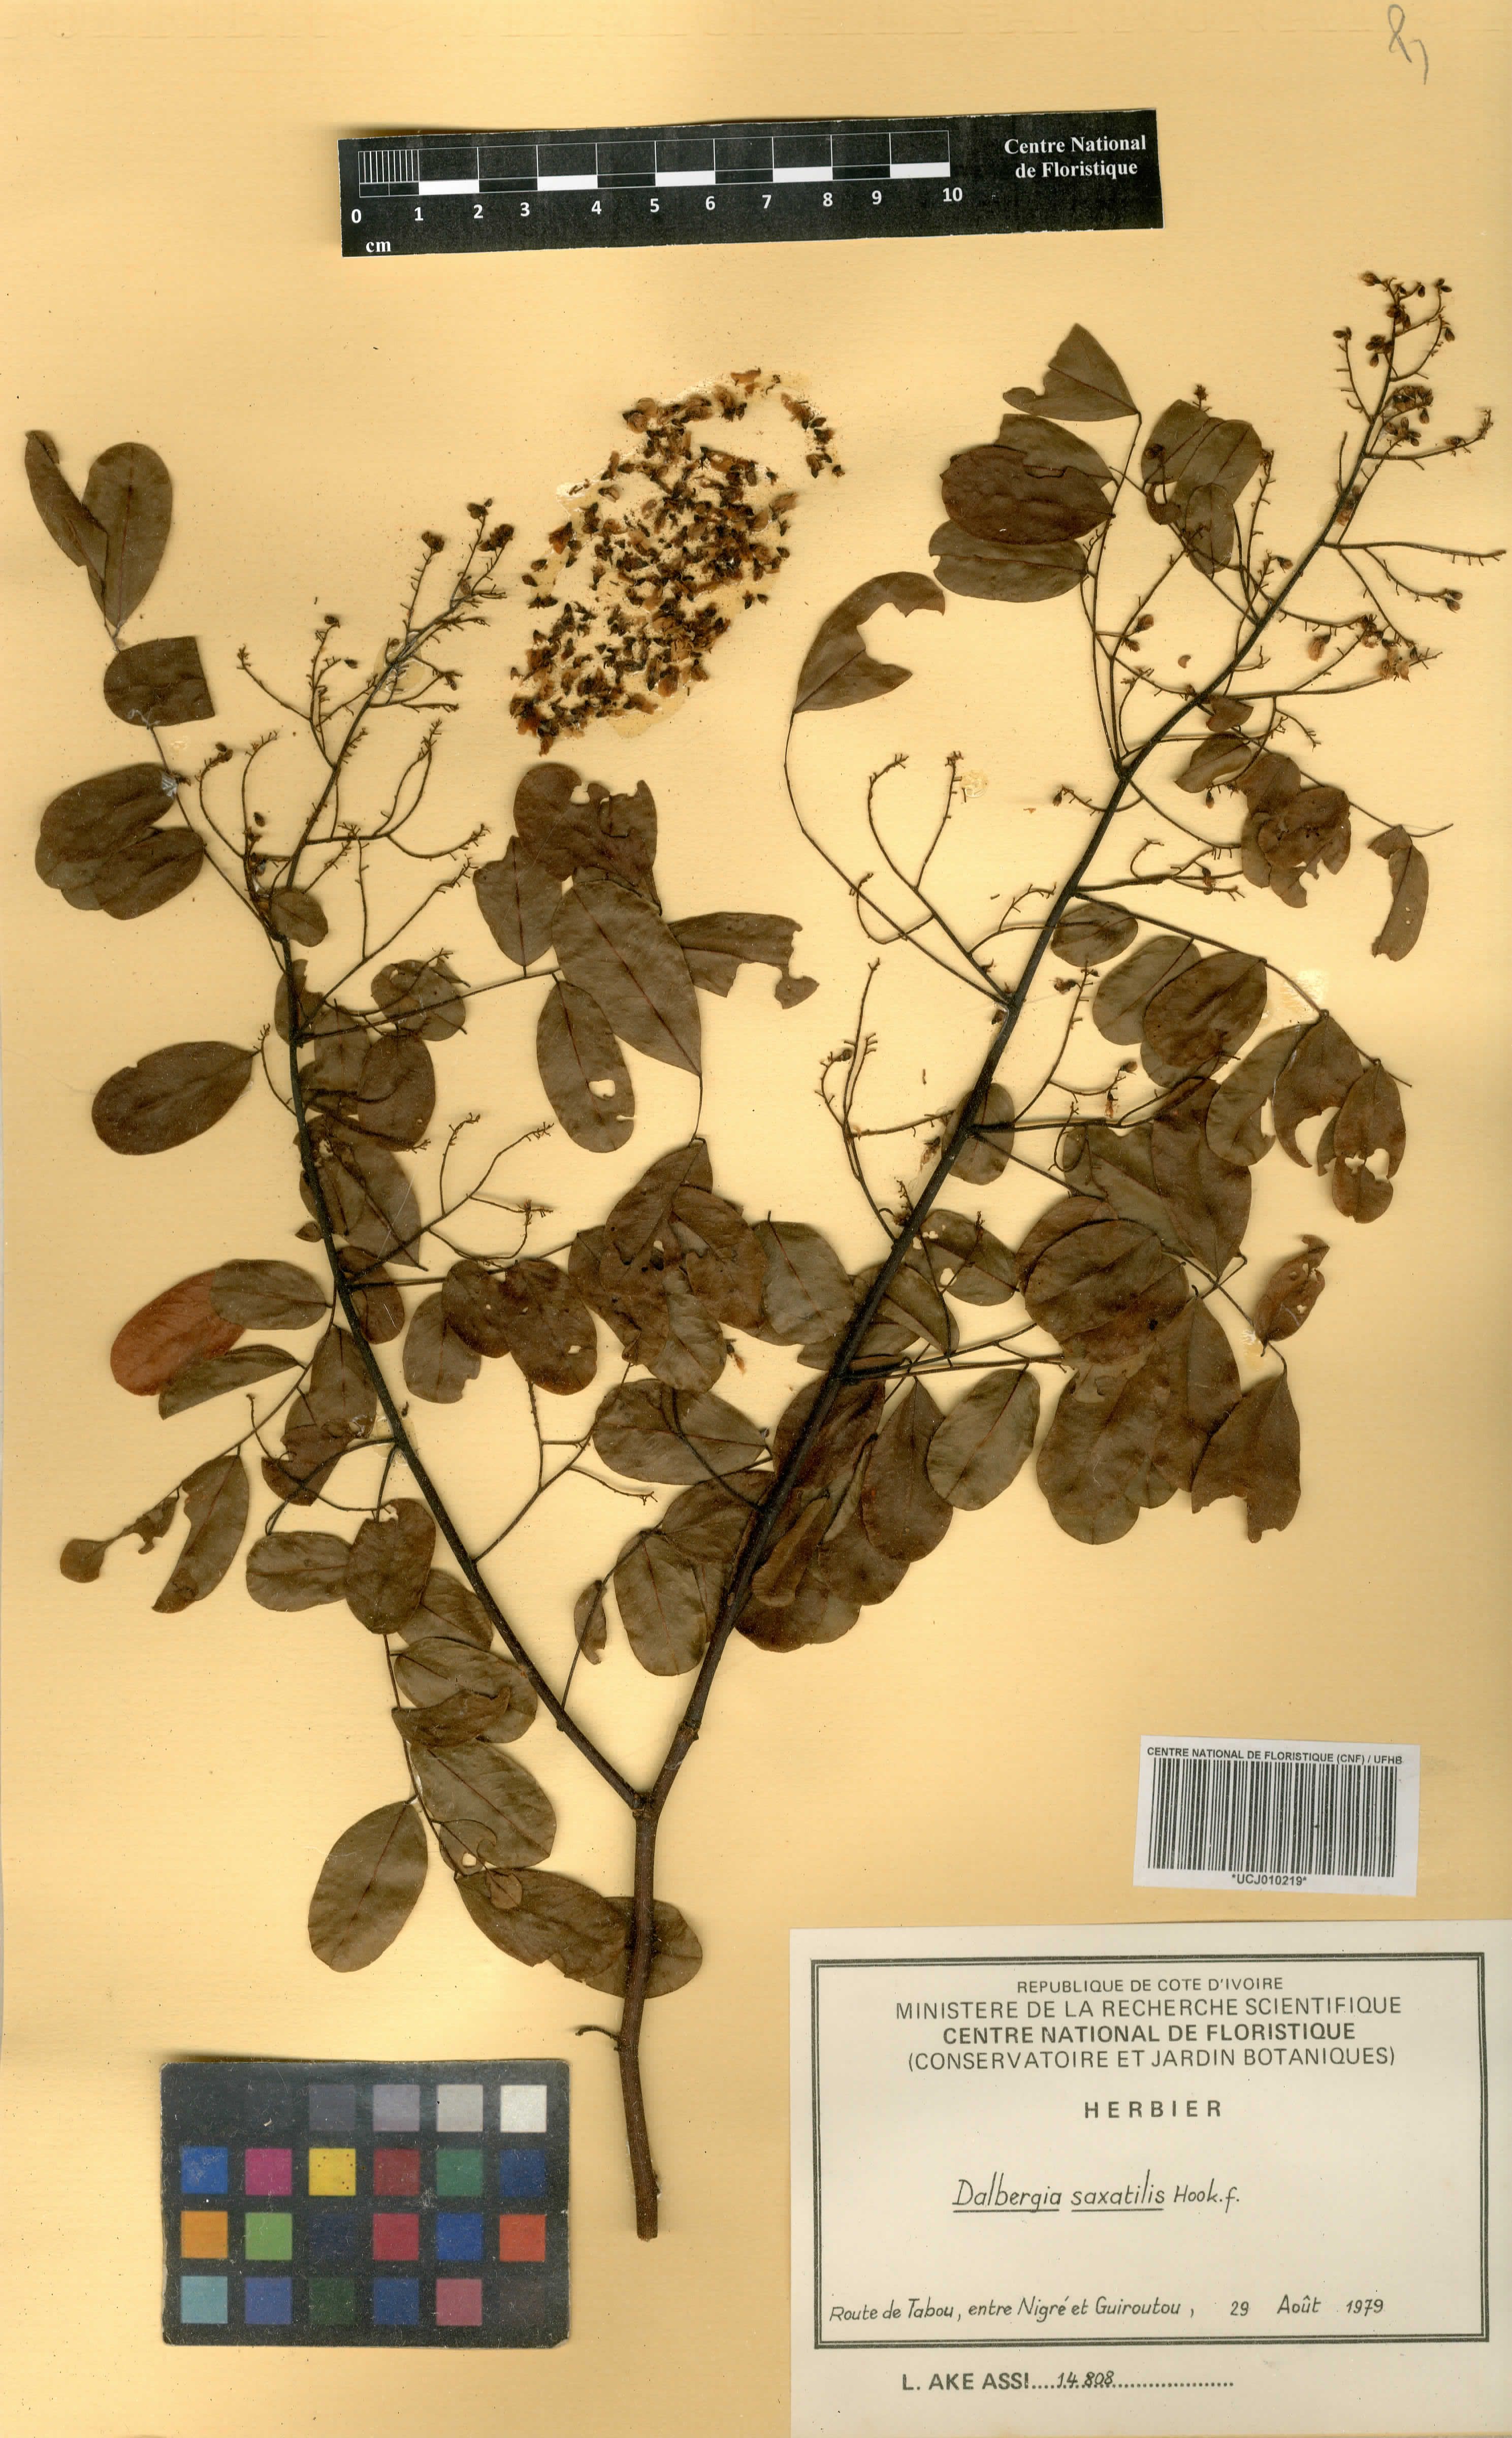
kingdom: Plantae
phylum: Tracheophyta
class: Magnoliopsida
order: Fabales
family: Fabaceae
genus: Dalbergia
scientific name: Dalbergia saxatilis
